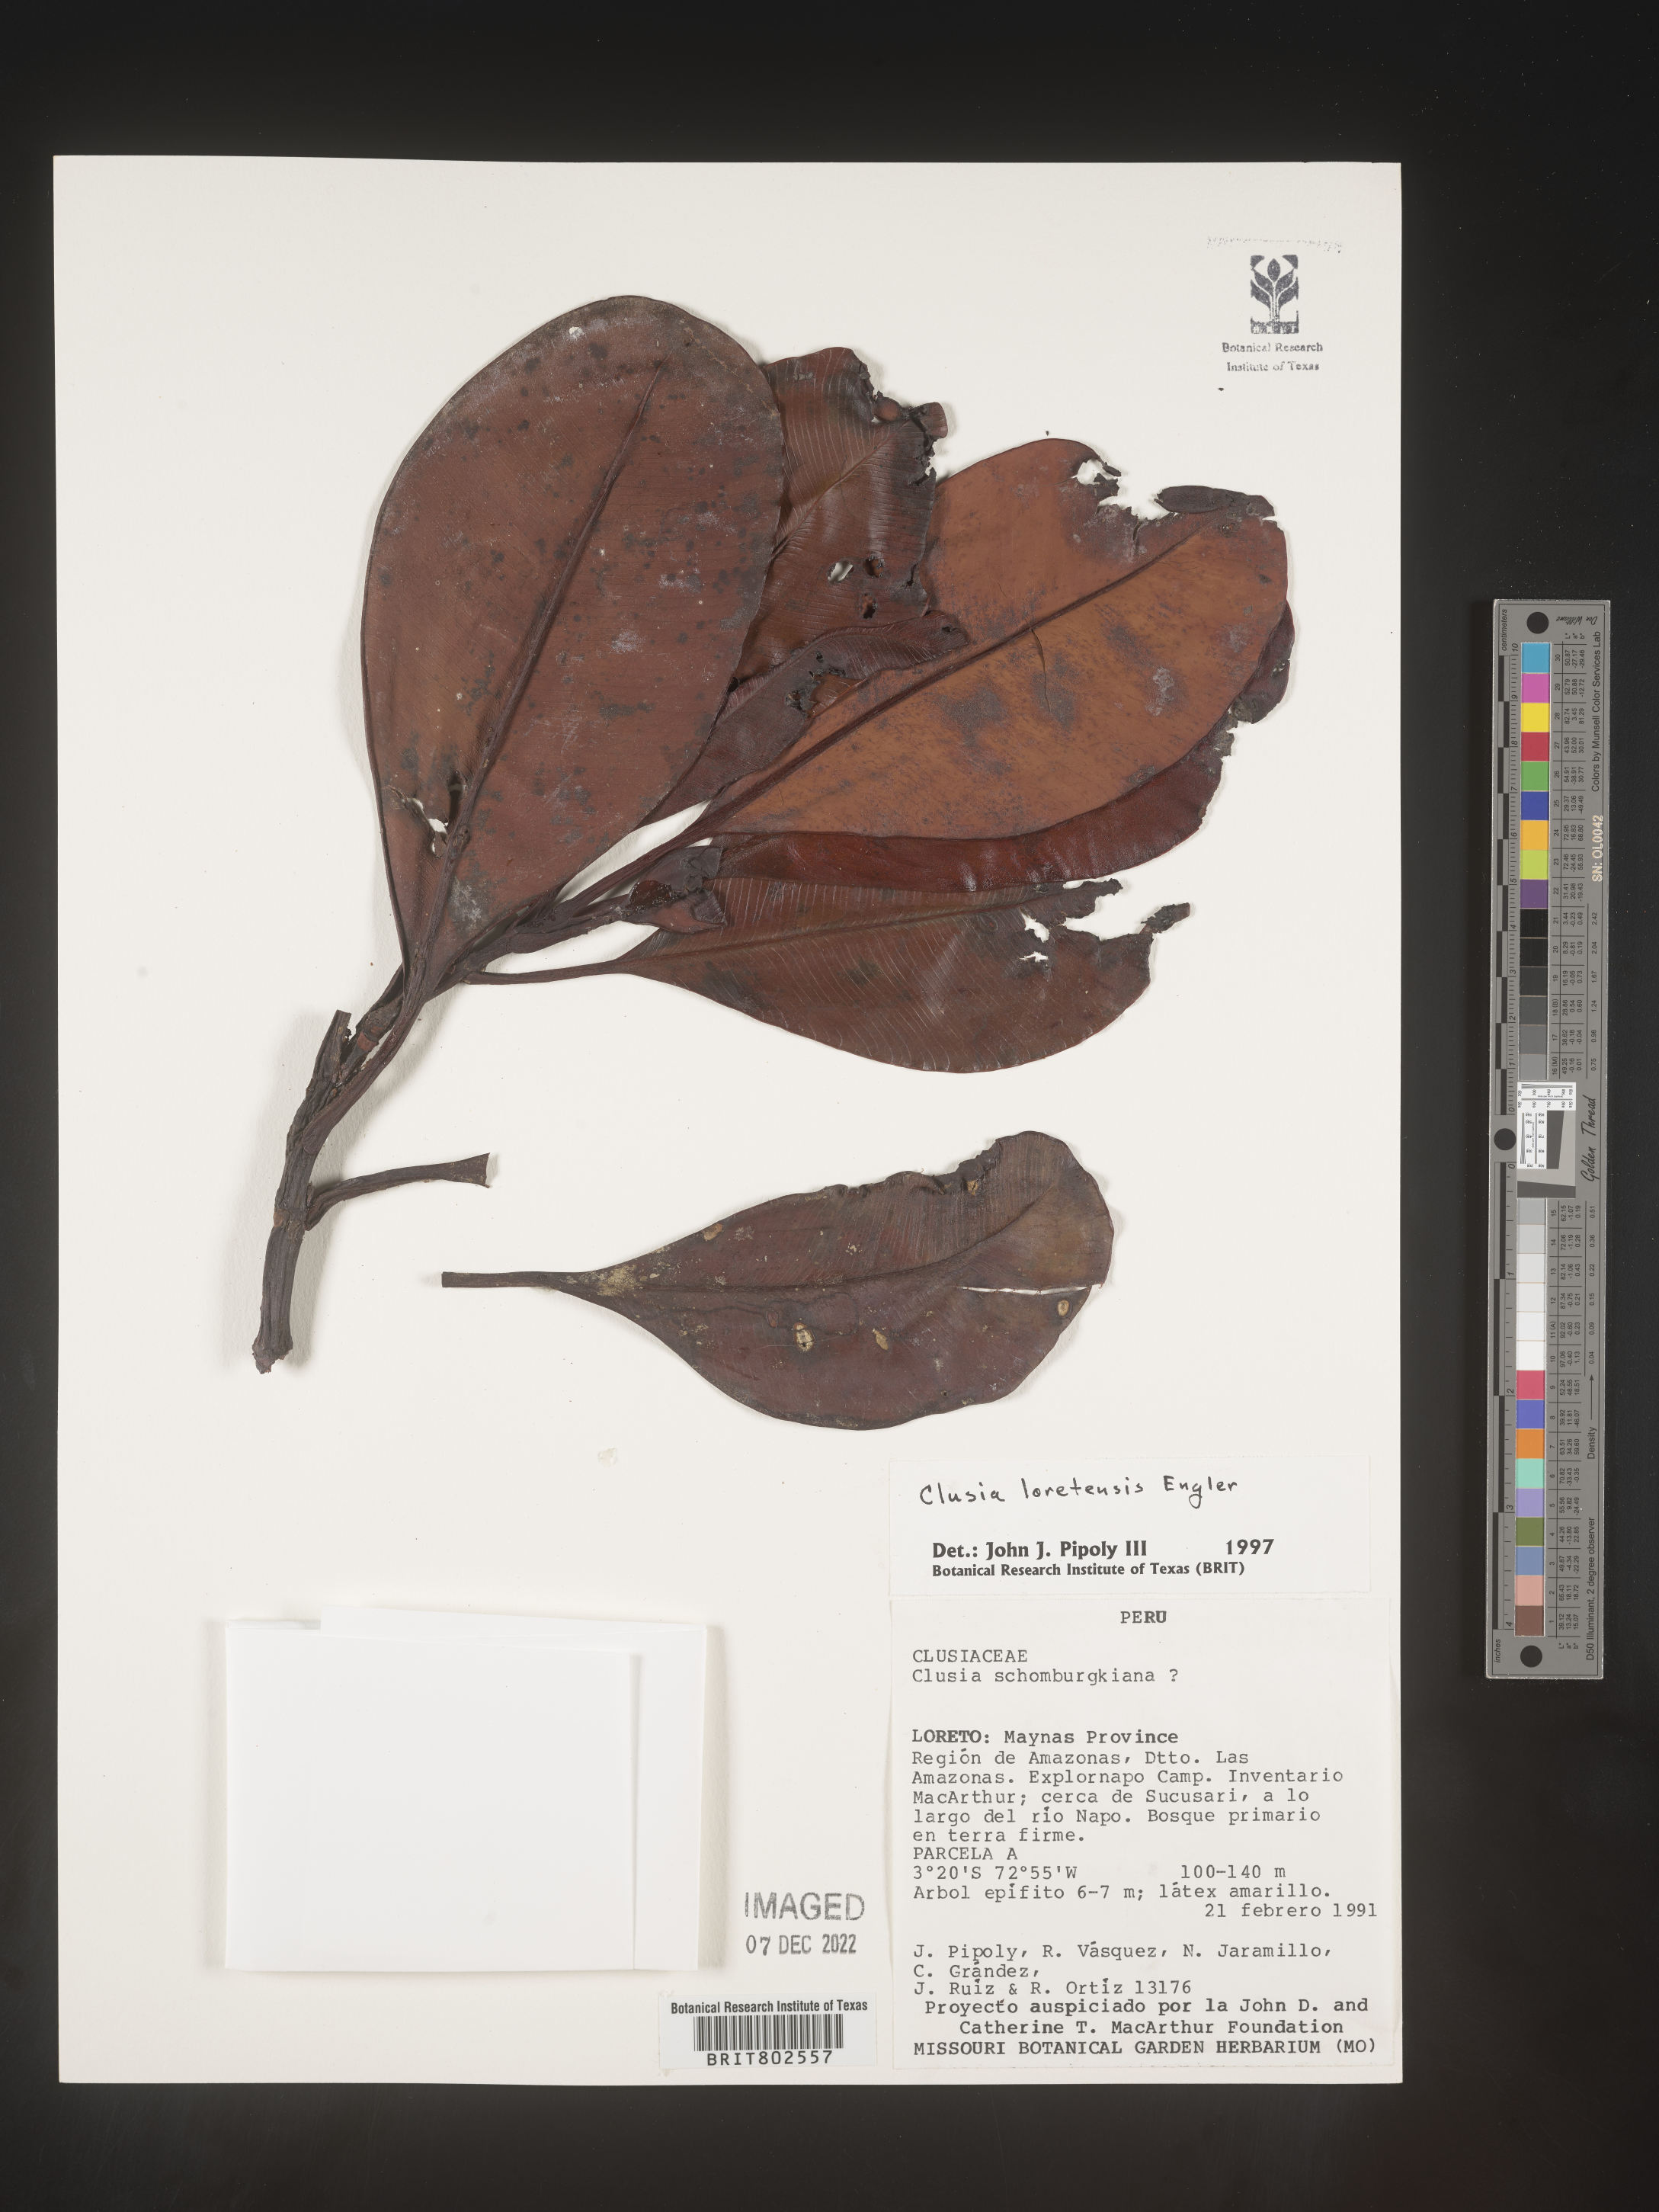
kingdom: Plantae
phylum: Tracheophyta
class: Magnoliopsida
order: Malpighiales
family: Clusiaceae
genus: Clusia
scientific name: Clusia loretensis
